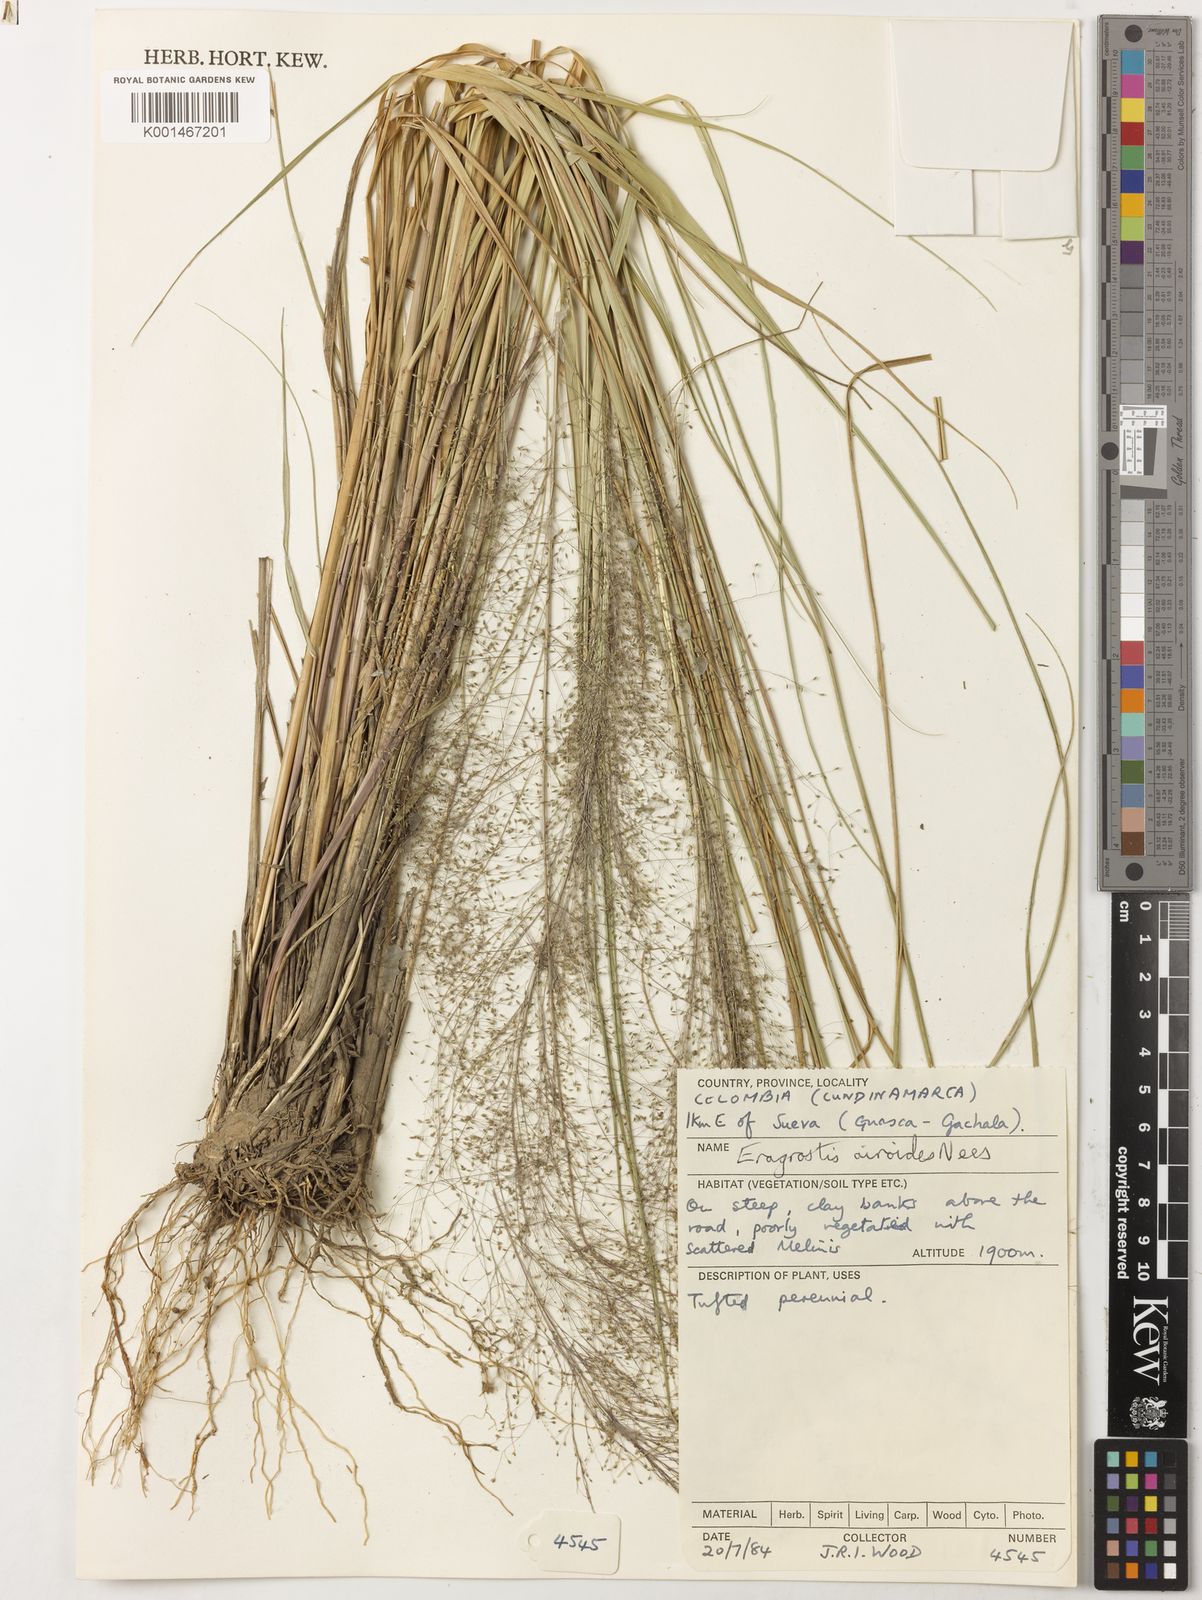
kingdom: Plantae
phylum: Tracheophyta
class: Liliopsida
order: Poales
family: Poaceae
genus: Eragrostis
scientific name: Eragrostis airoides
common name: Darnel lovegrass
